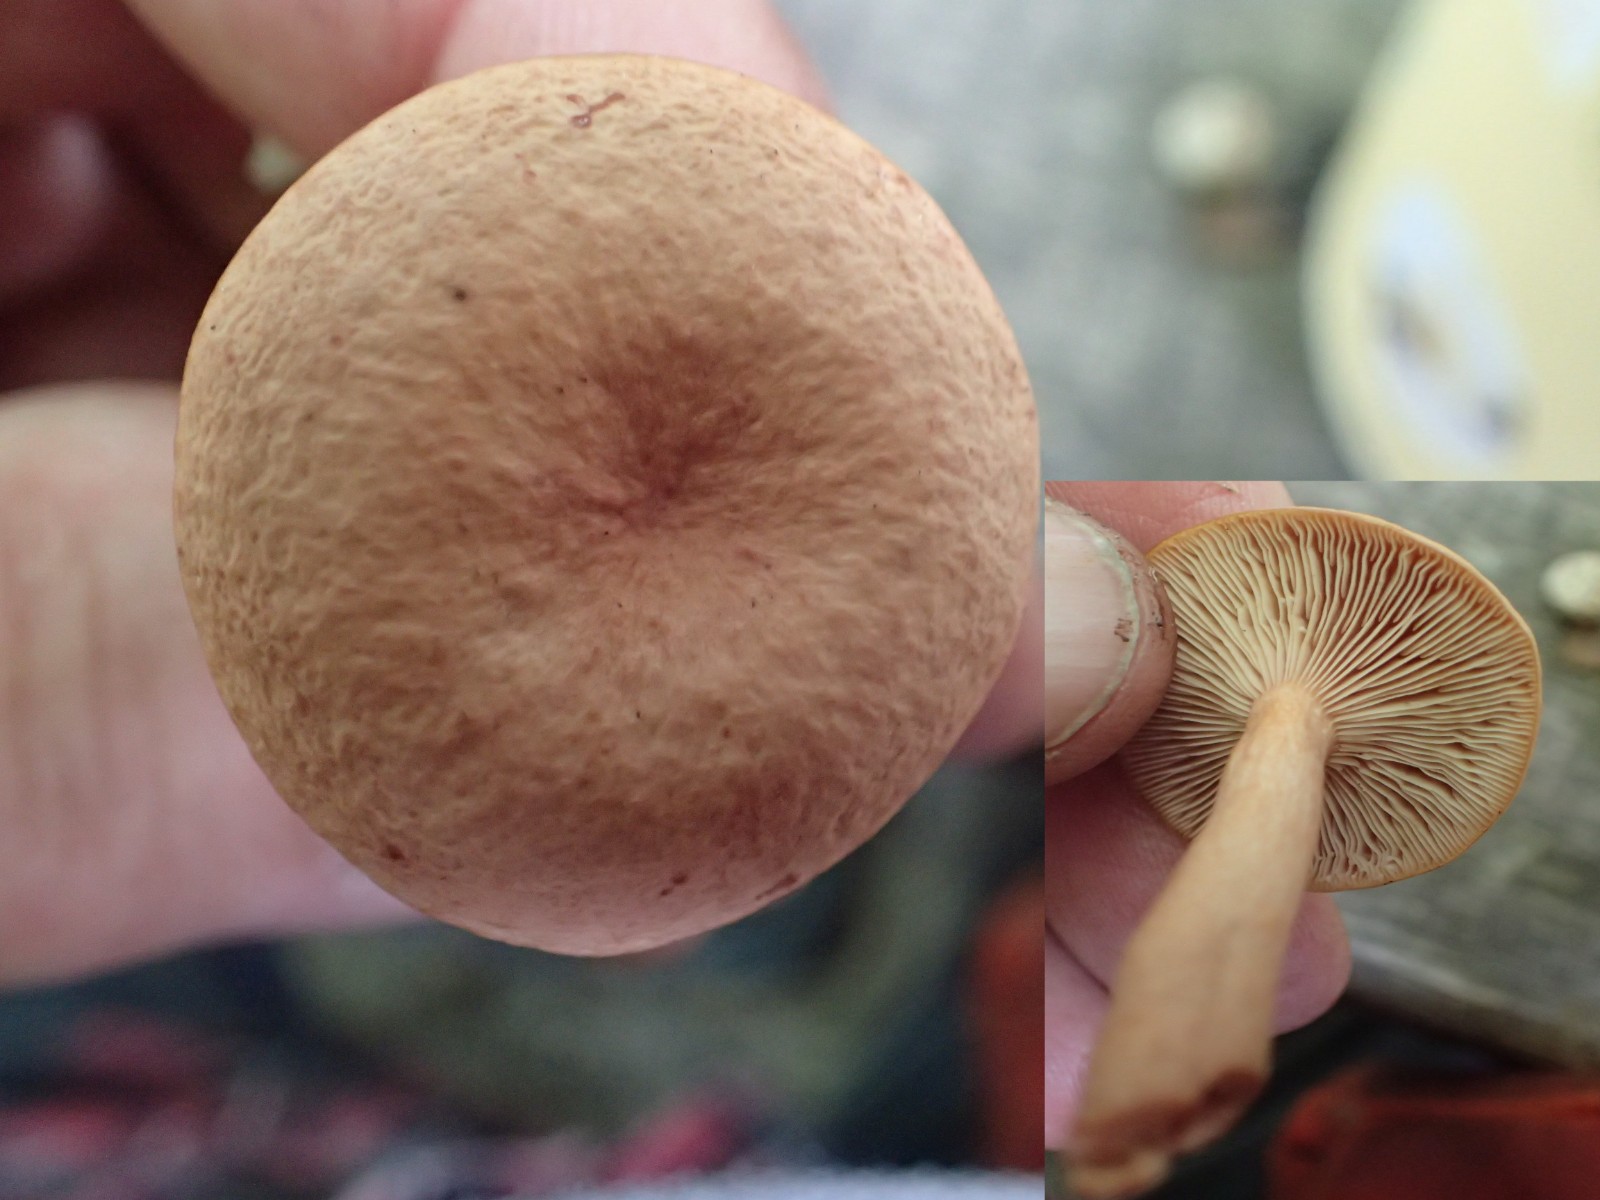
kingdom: Fungi
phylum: Basidiomycota
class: Agaricomycetes
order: Russulales
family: Russulaceae
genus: Lactarius
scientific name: Lactarius tabidus
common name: rynket mælkehat
